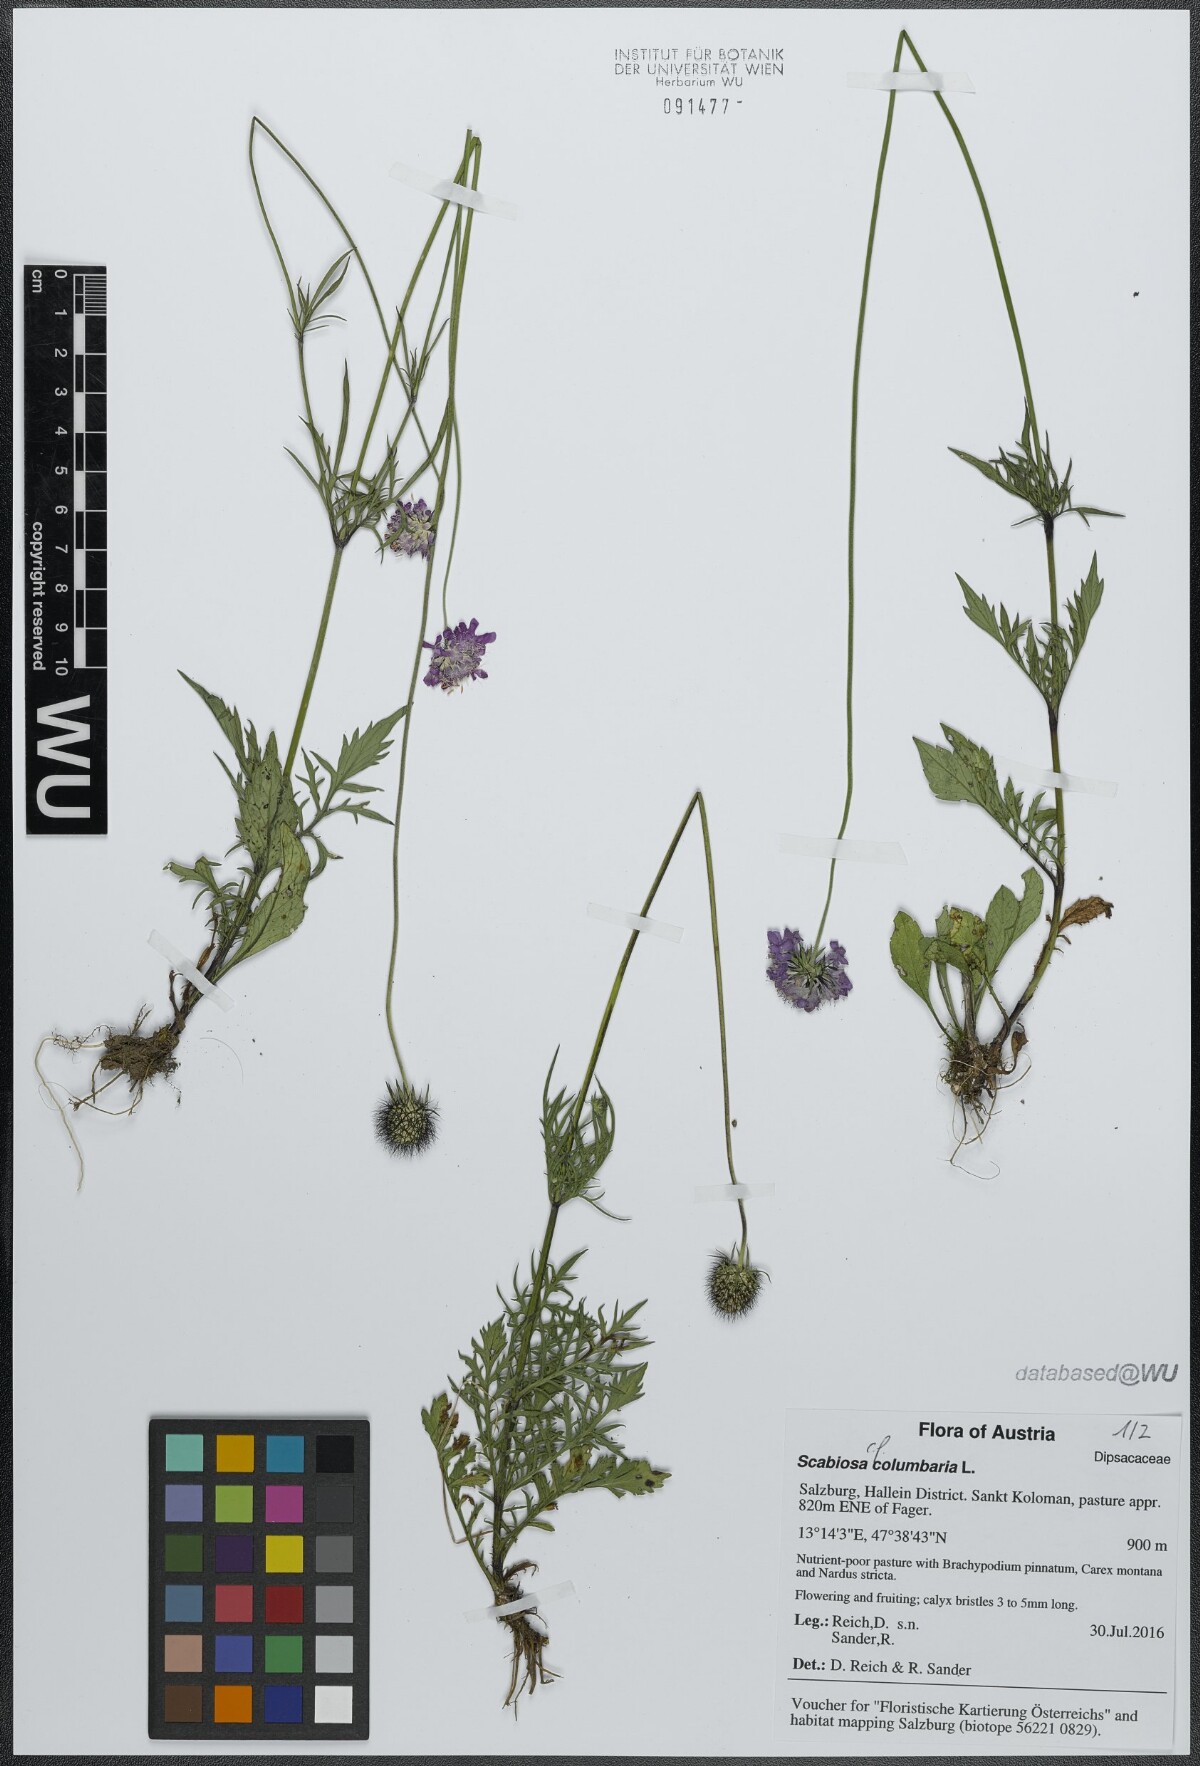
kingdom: Plantae
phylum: Tracheophyta
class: Magnoliopsida
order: Dipsacales
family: Caprifoliaceae
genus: Scabiosa
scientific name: Scabiosa columbaria
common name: Small scabious
